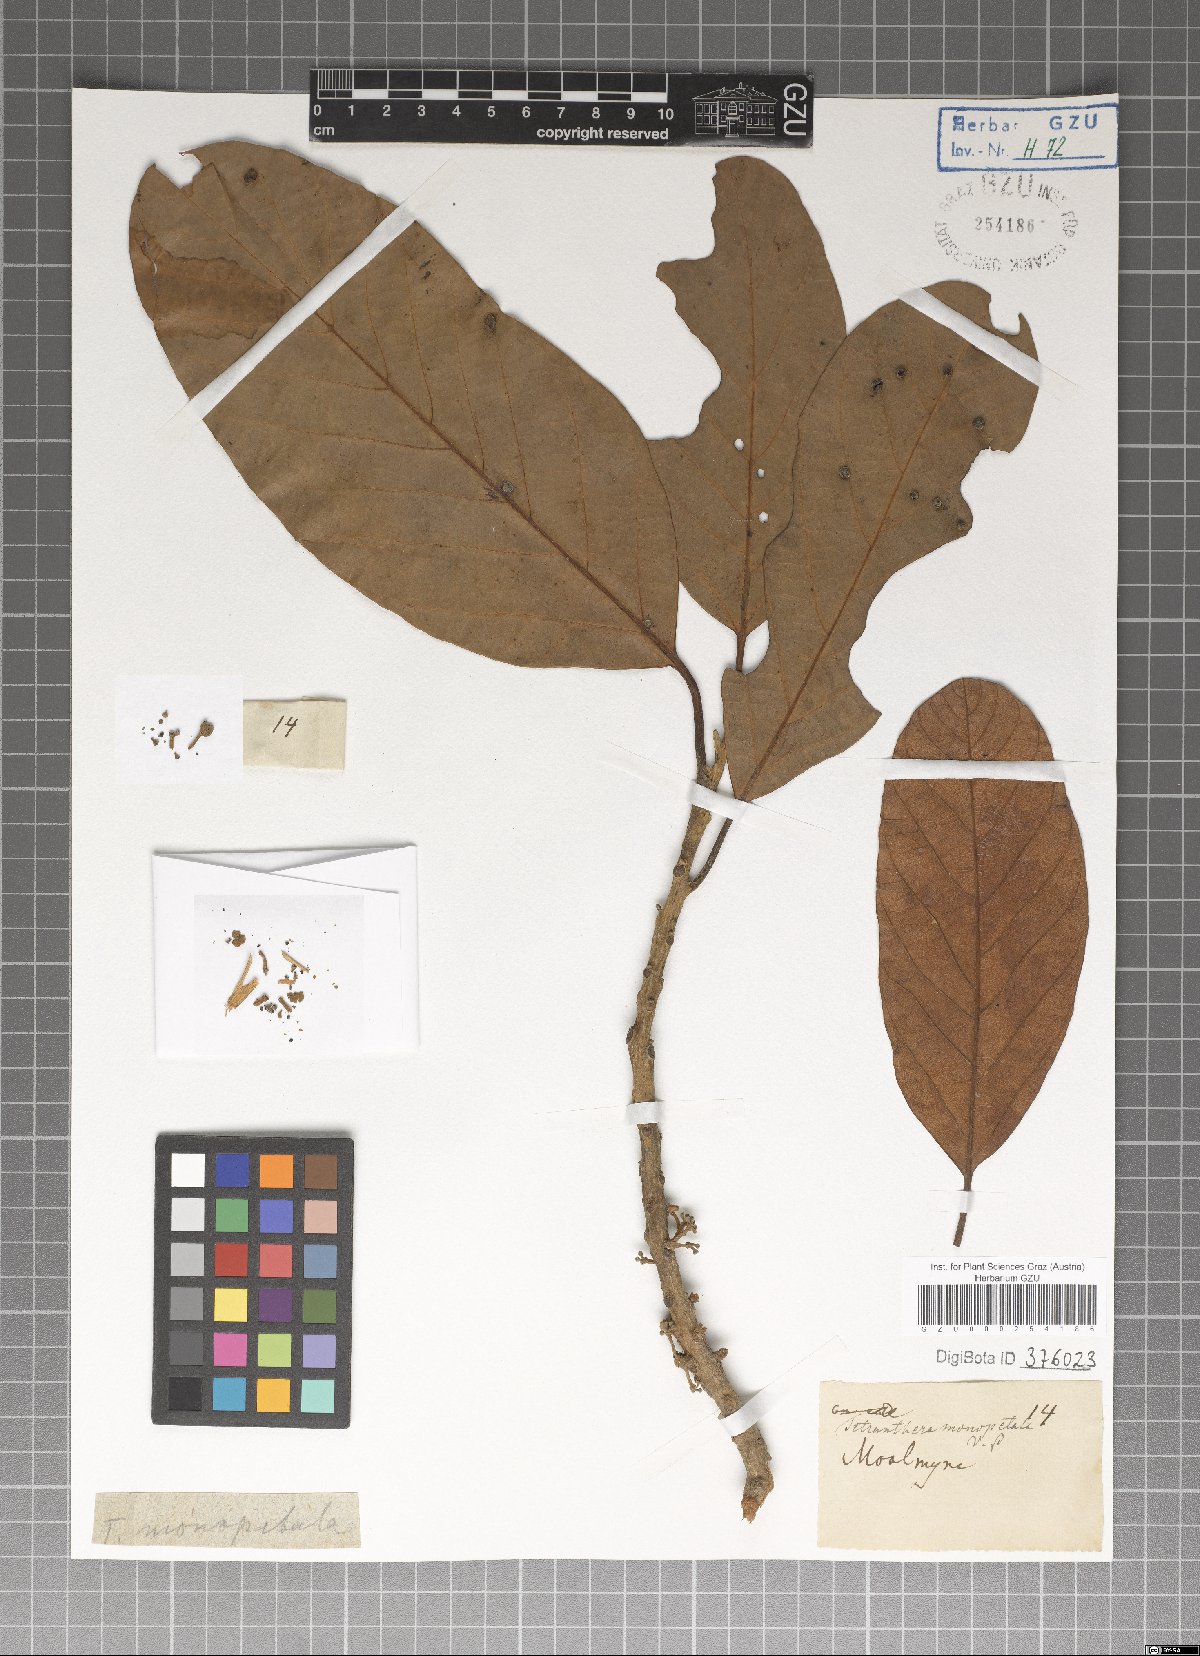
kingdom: Plantae
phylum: Tracheophyta
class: Magnoliopsida
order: Laurales
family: Lauraceae
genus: Litsea
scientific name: Litsea monopetala
